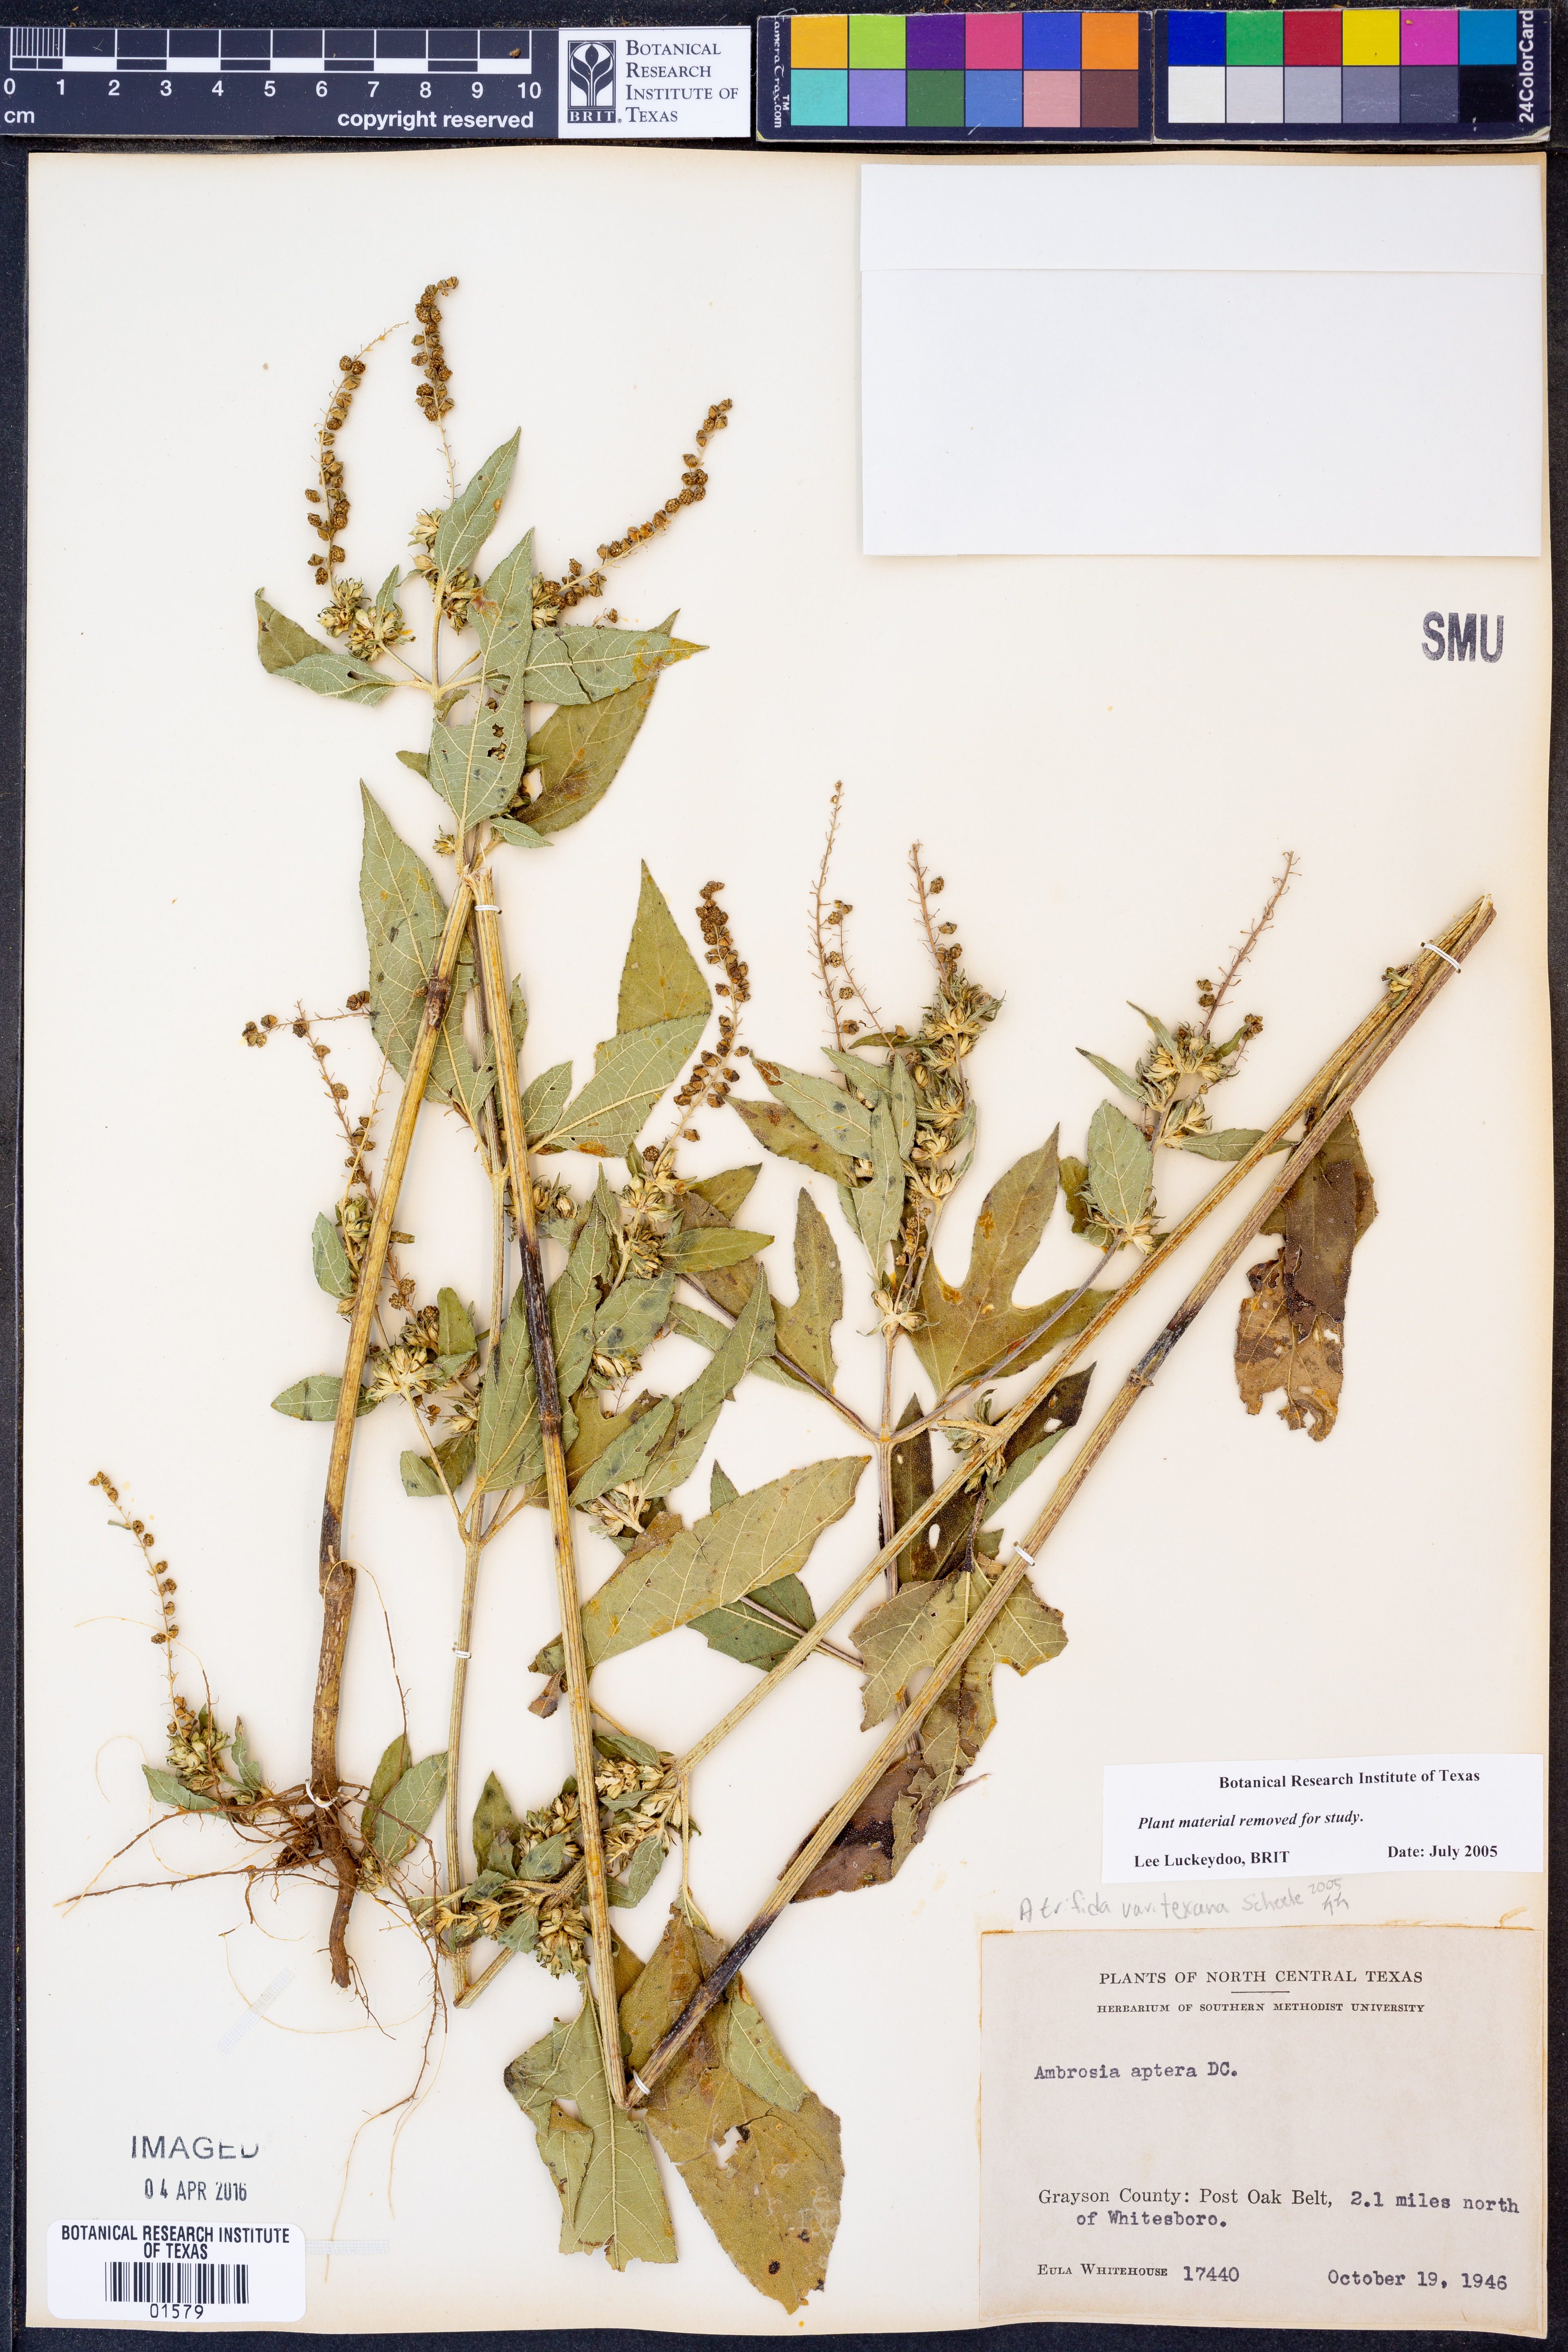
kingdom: Plantae
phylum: Tracheophyta
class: Magnoliopsida
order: Asterales
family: Asteraceae
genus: Ambrosia
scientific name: Ambrosia trifida
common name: Giant ragweed
